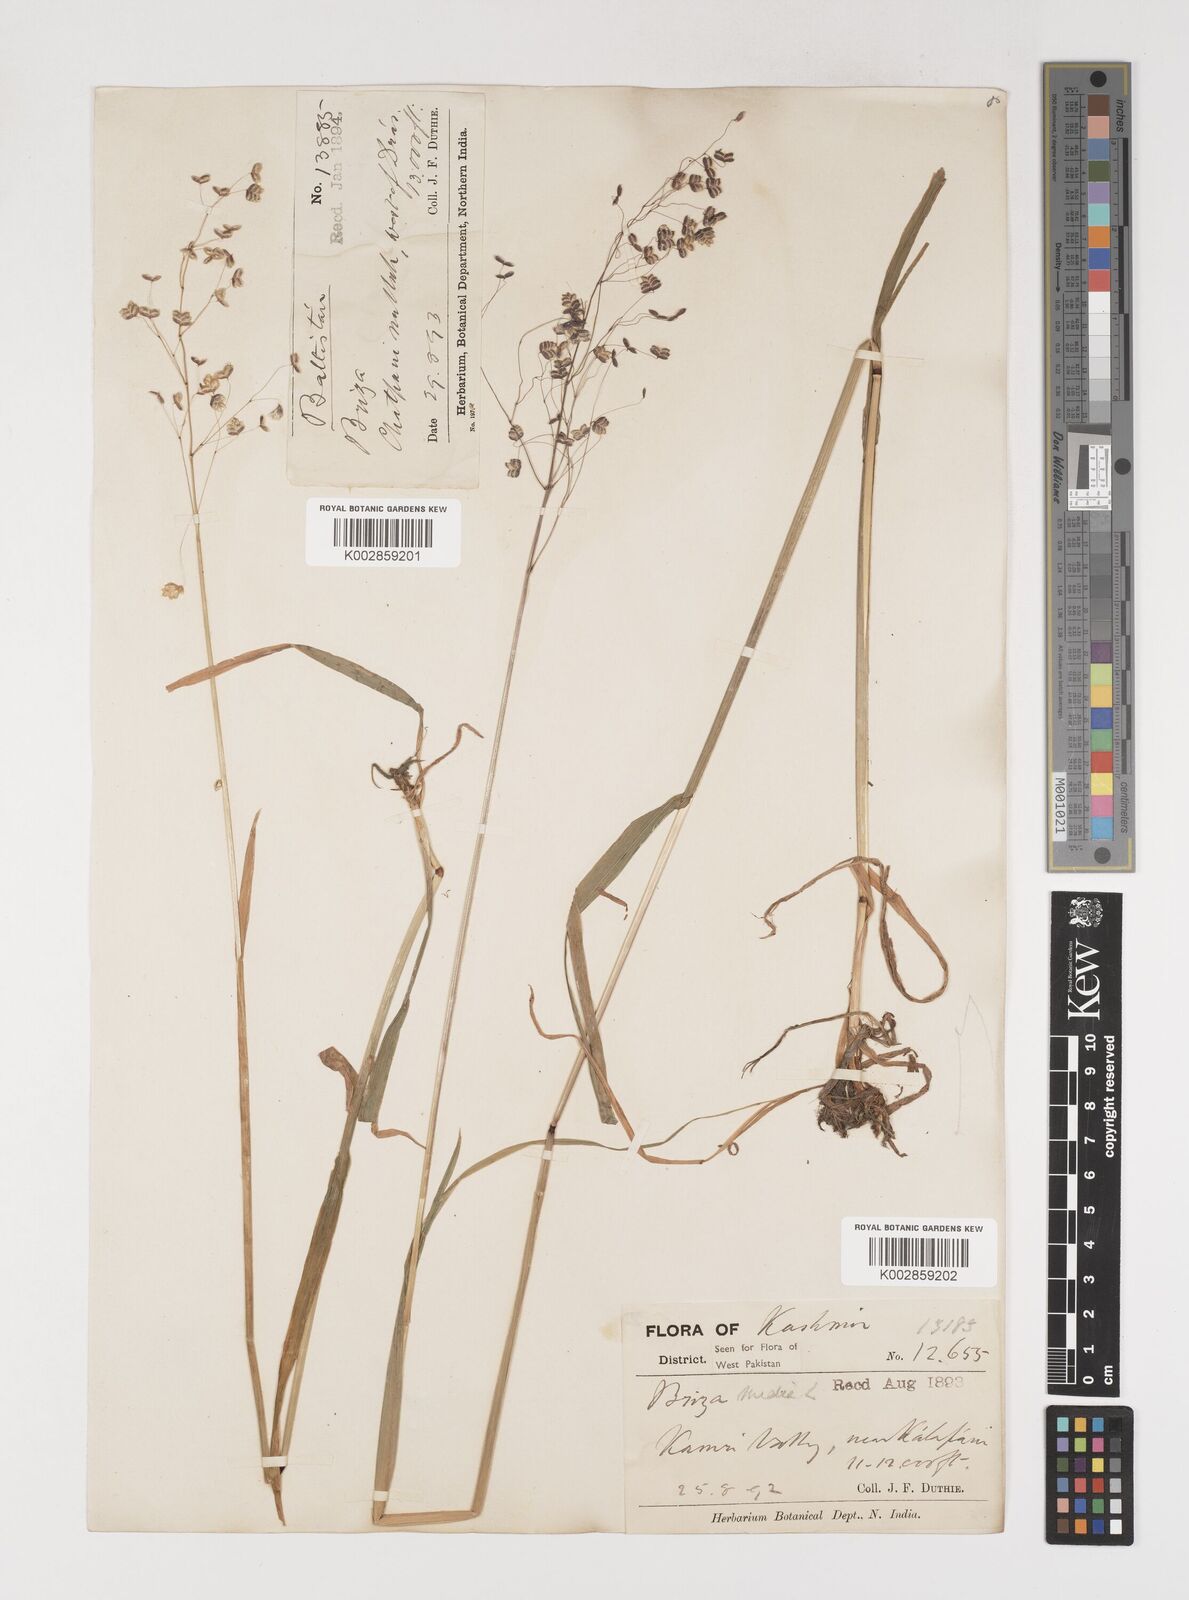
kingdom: Plantae
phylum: Tracheophyta
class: Liliopsida
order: Poales
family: Poaceae
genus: Briza
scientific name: Briza media
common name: Quaking grass
